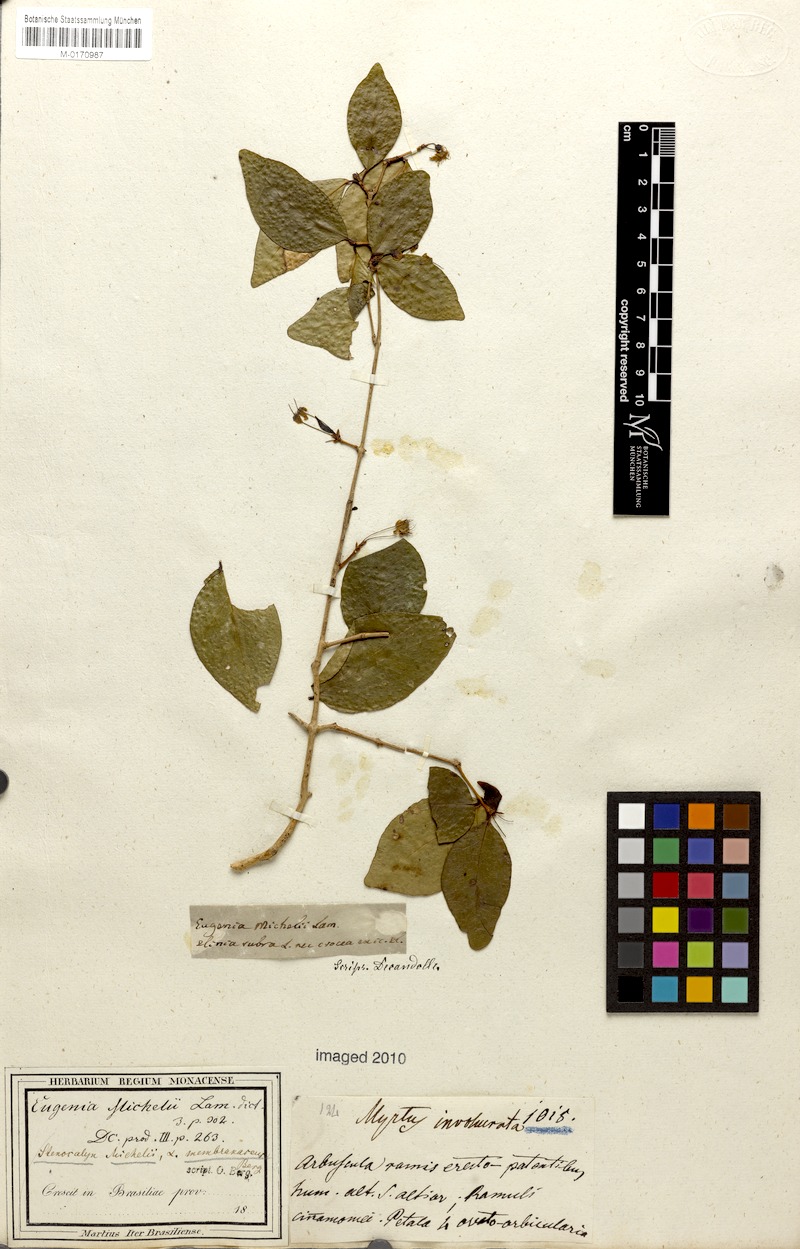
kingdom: Plantae
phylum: Tracheophyta
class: Magnoliopsida
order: Myrtales
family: Myrtaceae
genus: Eugenia
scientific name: Eugenia uniflora
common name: Surinam cherry
